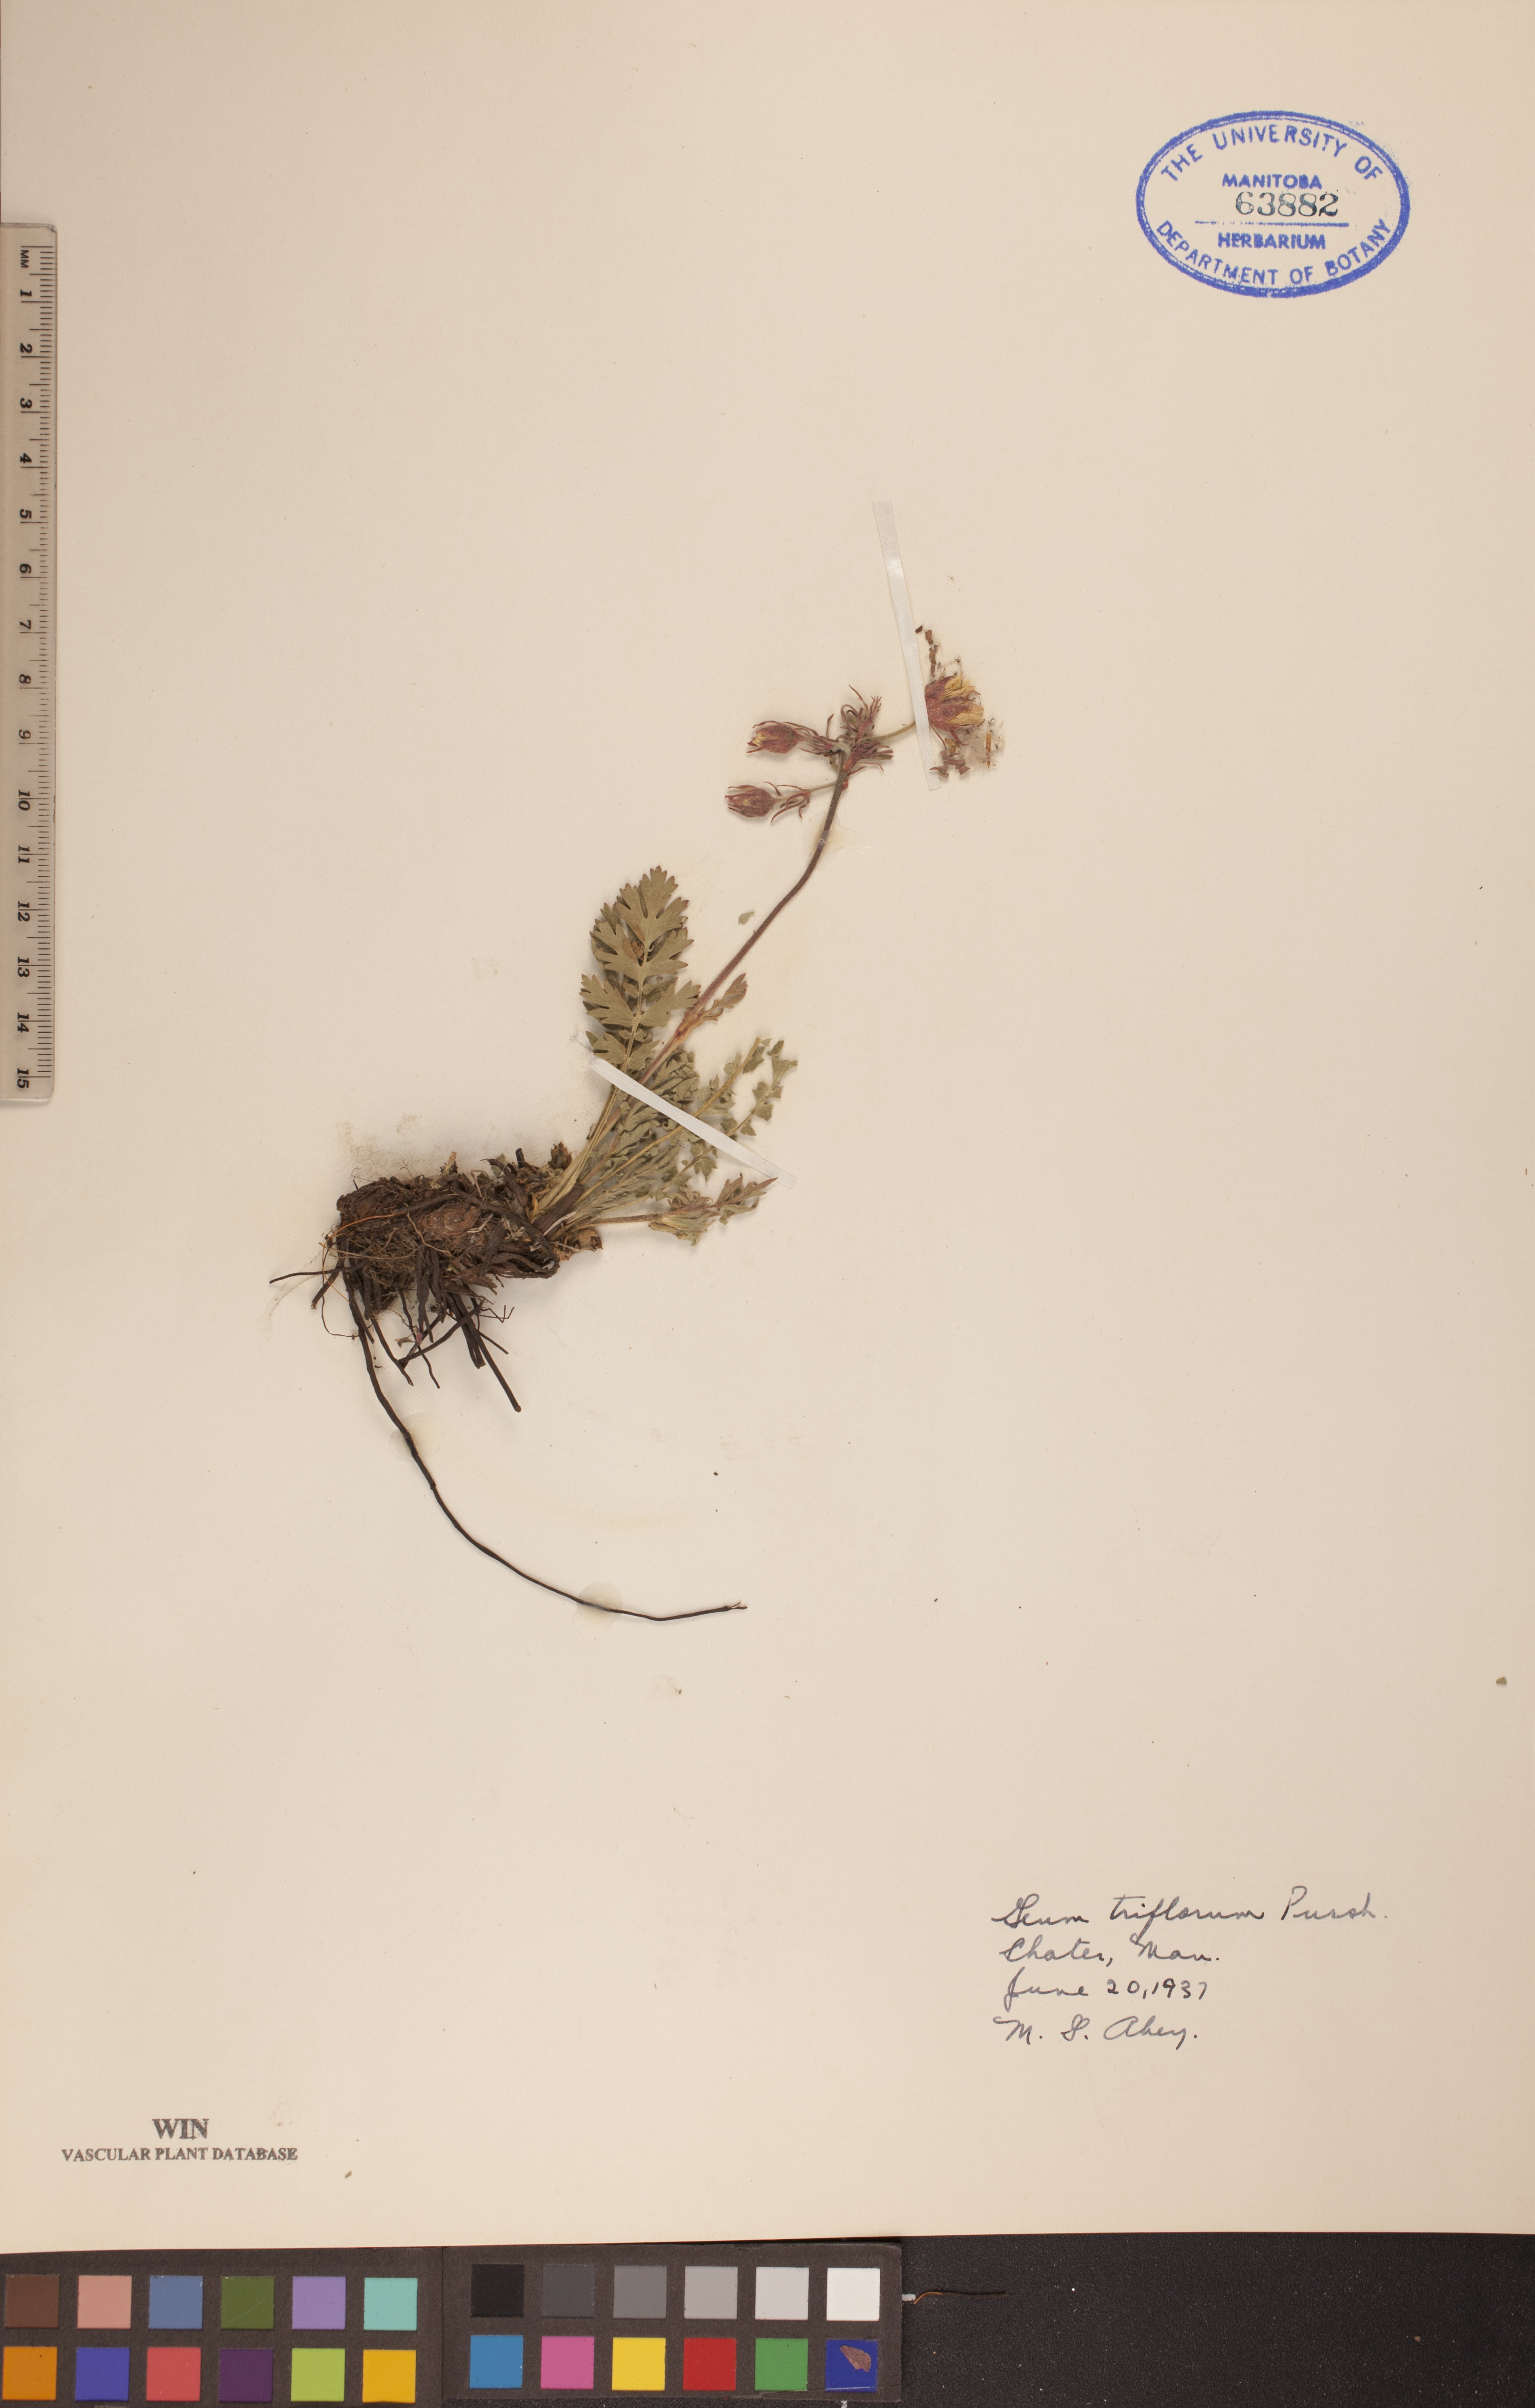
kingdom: Plantae
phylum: Tracheophyta
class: Magnoliopsida
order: Rosales
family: Rosaceae
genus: Geum
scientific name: Geum triflorum
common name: Old man's whiskers
